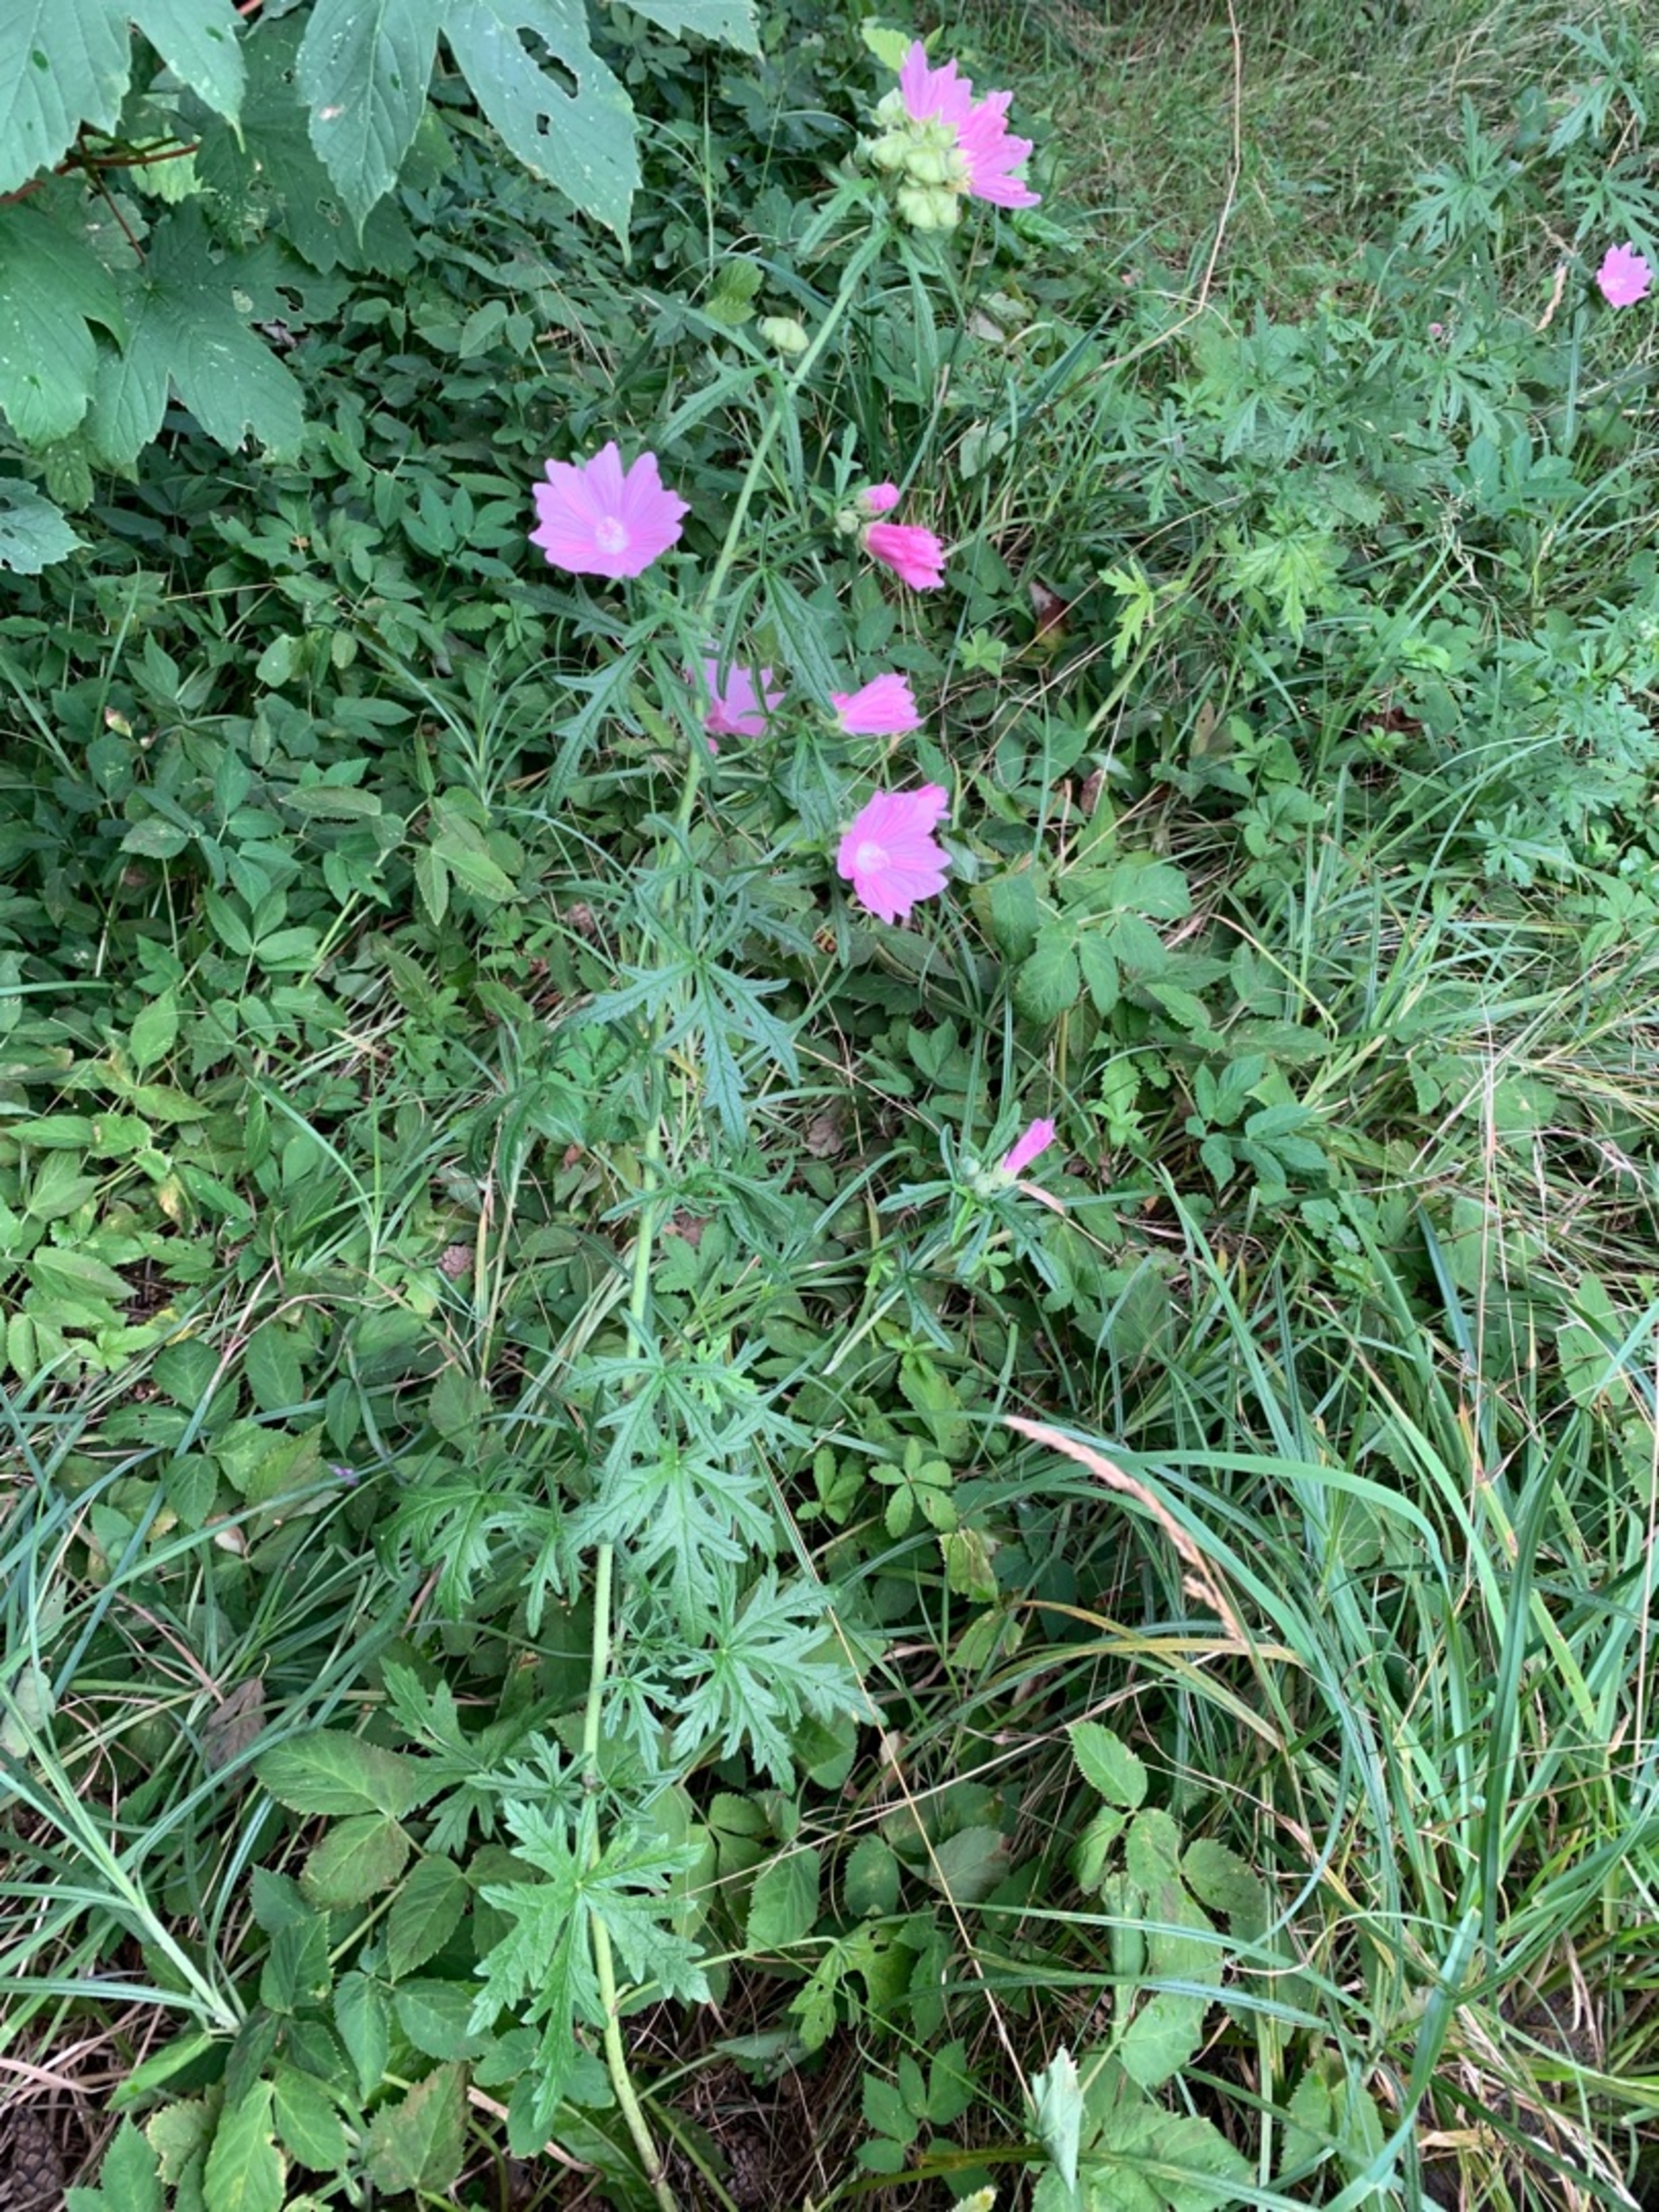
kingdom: Plantae
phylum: Tracheophyta
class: Magnoliopsida
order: Malvales
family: Malvaceae
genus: Malva
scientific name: Malva moschata
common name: Moskus-katost
